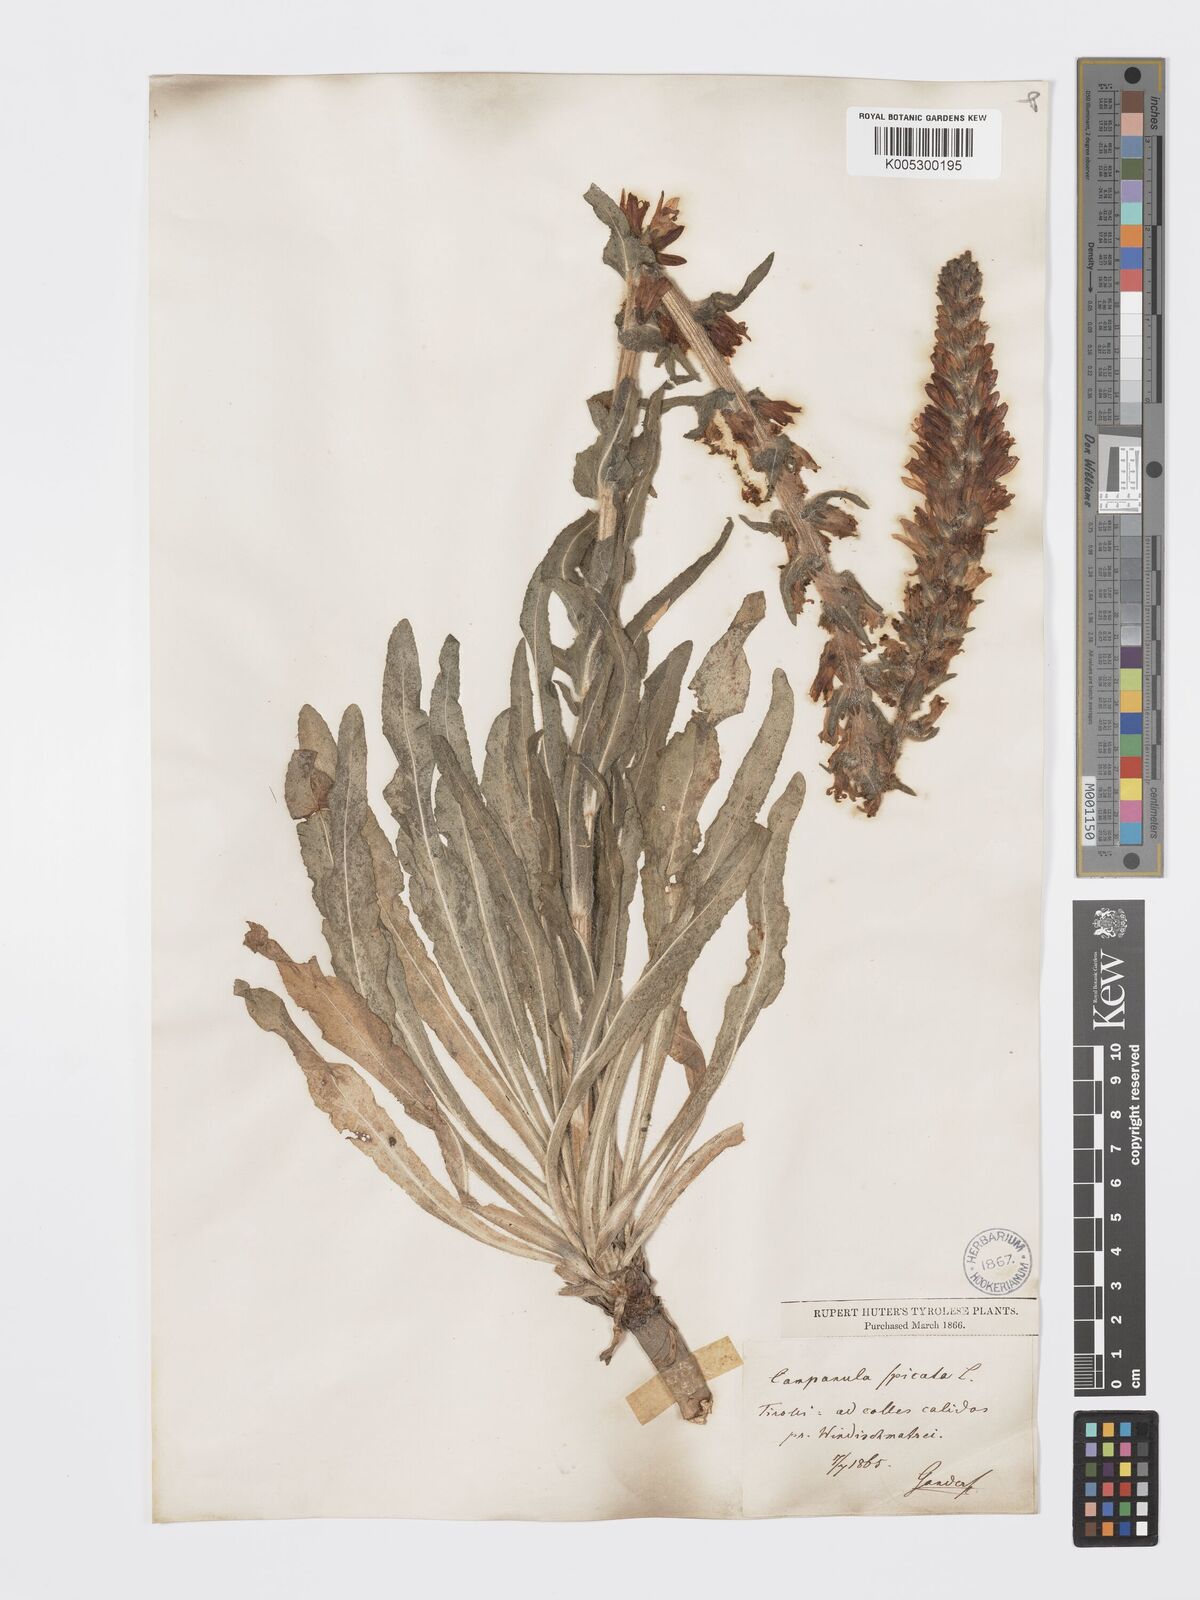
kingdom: Plantae
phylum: Tracheophyta
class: Magnoliopsida
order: Asterales
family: Campanulaceae
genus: Campanula
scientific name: Campanula spicata
